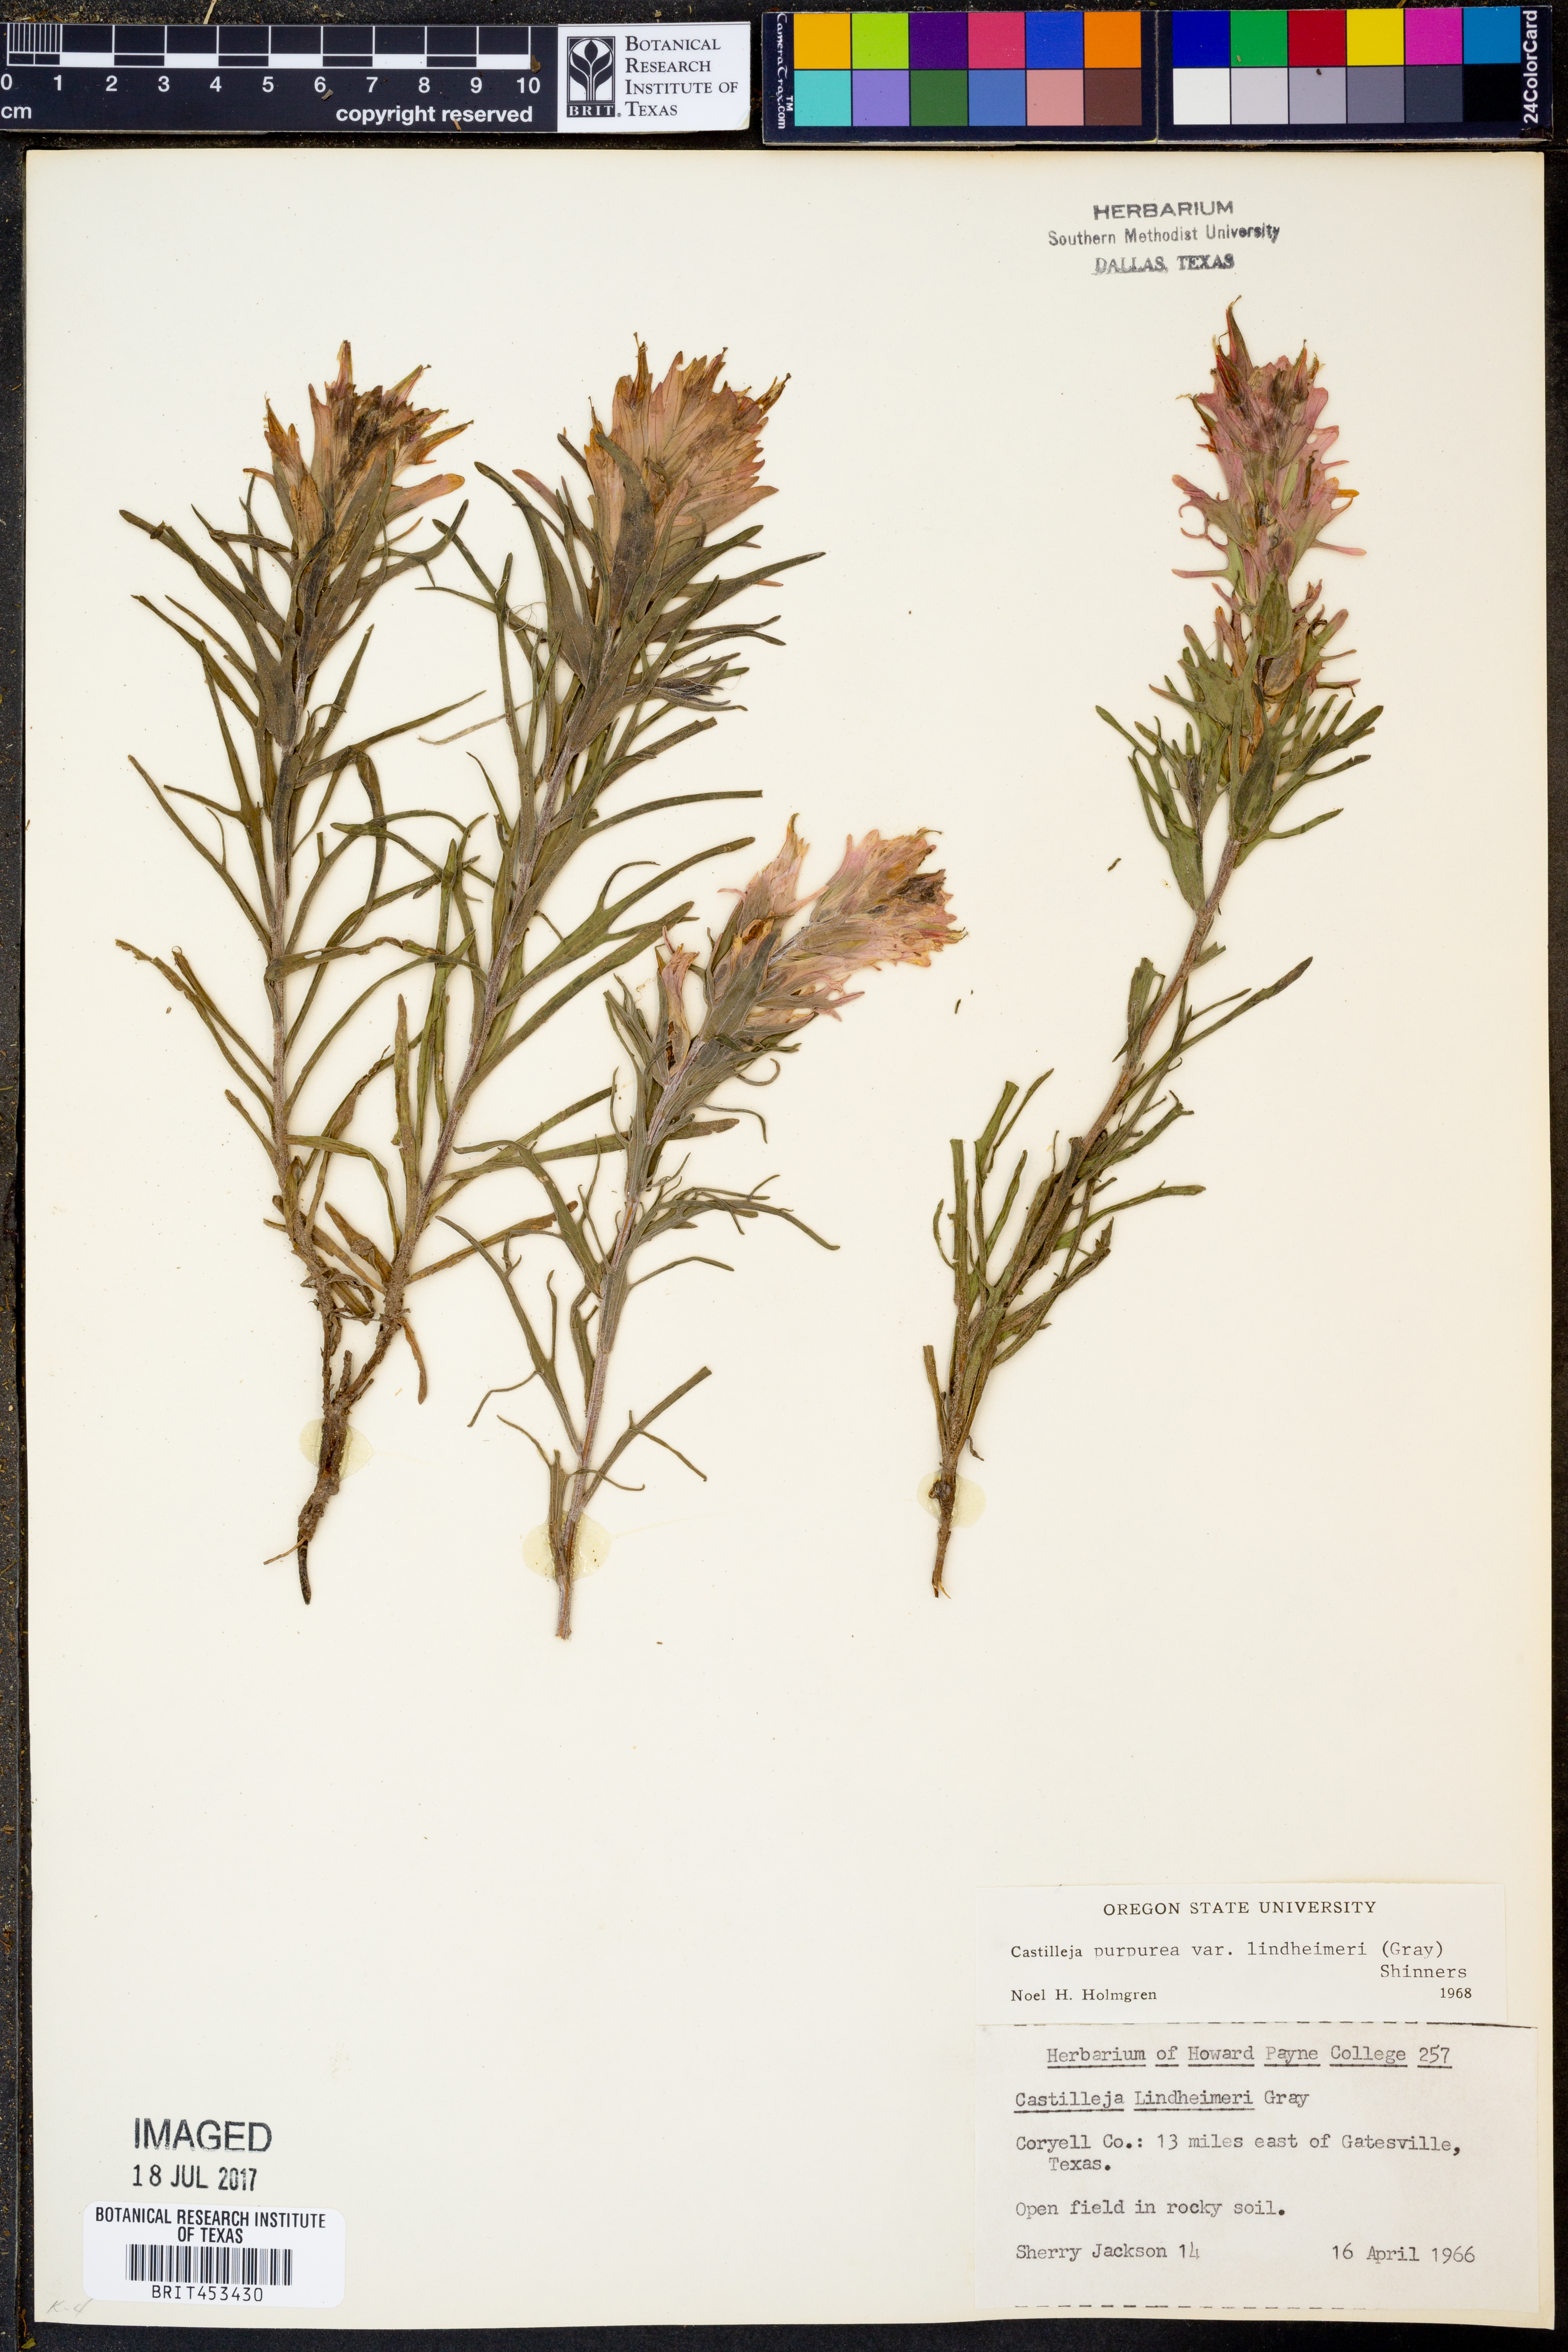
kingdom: Plantae
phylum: Tracheophyta
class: Magnoliopsida
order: Lamiales
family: Orobanchaceae
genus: Castilleja
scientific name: Castilleja lindheimeri
